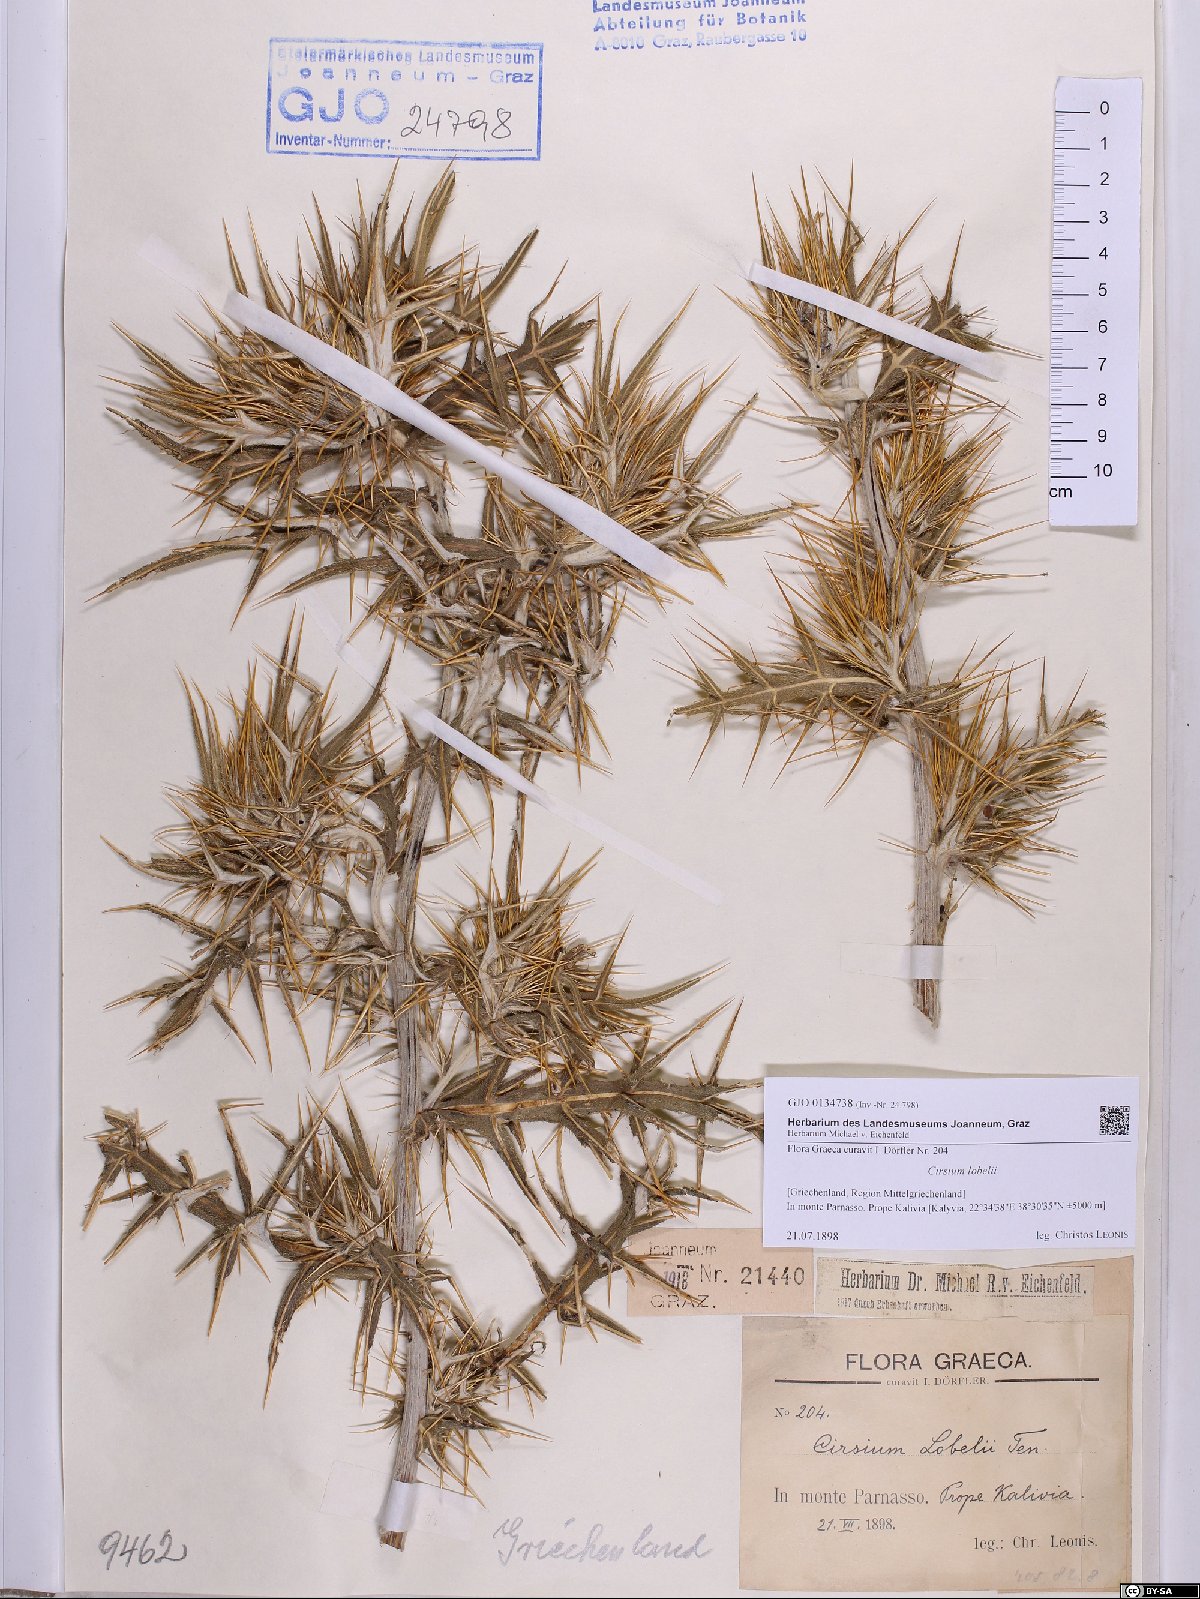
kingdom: Plantae
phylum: Tracheophyta
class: Magnoliopsida
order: Asterales
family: Asteraceae
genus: Lophiolepis
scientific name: Lophiolepis lobelii
